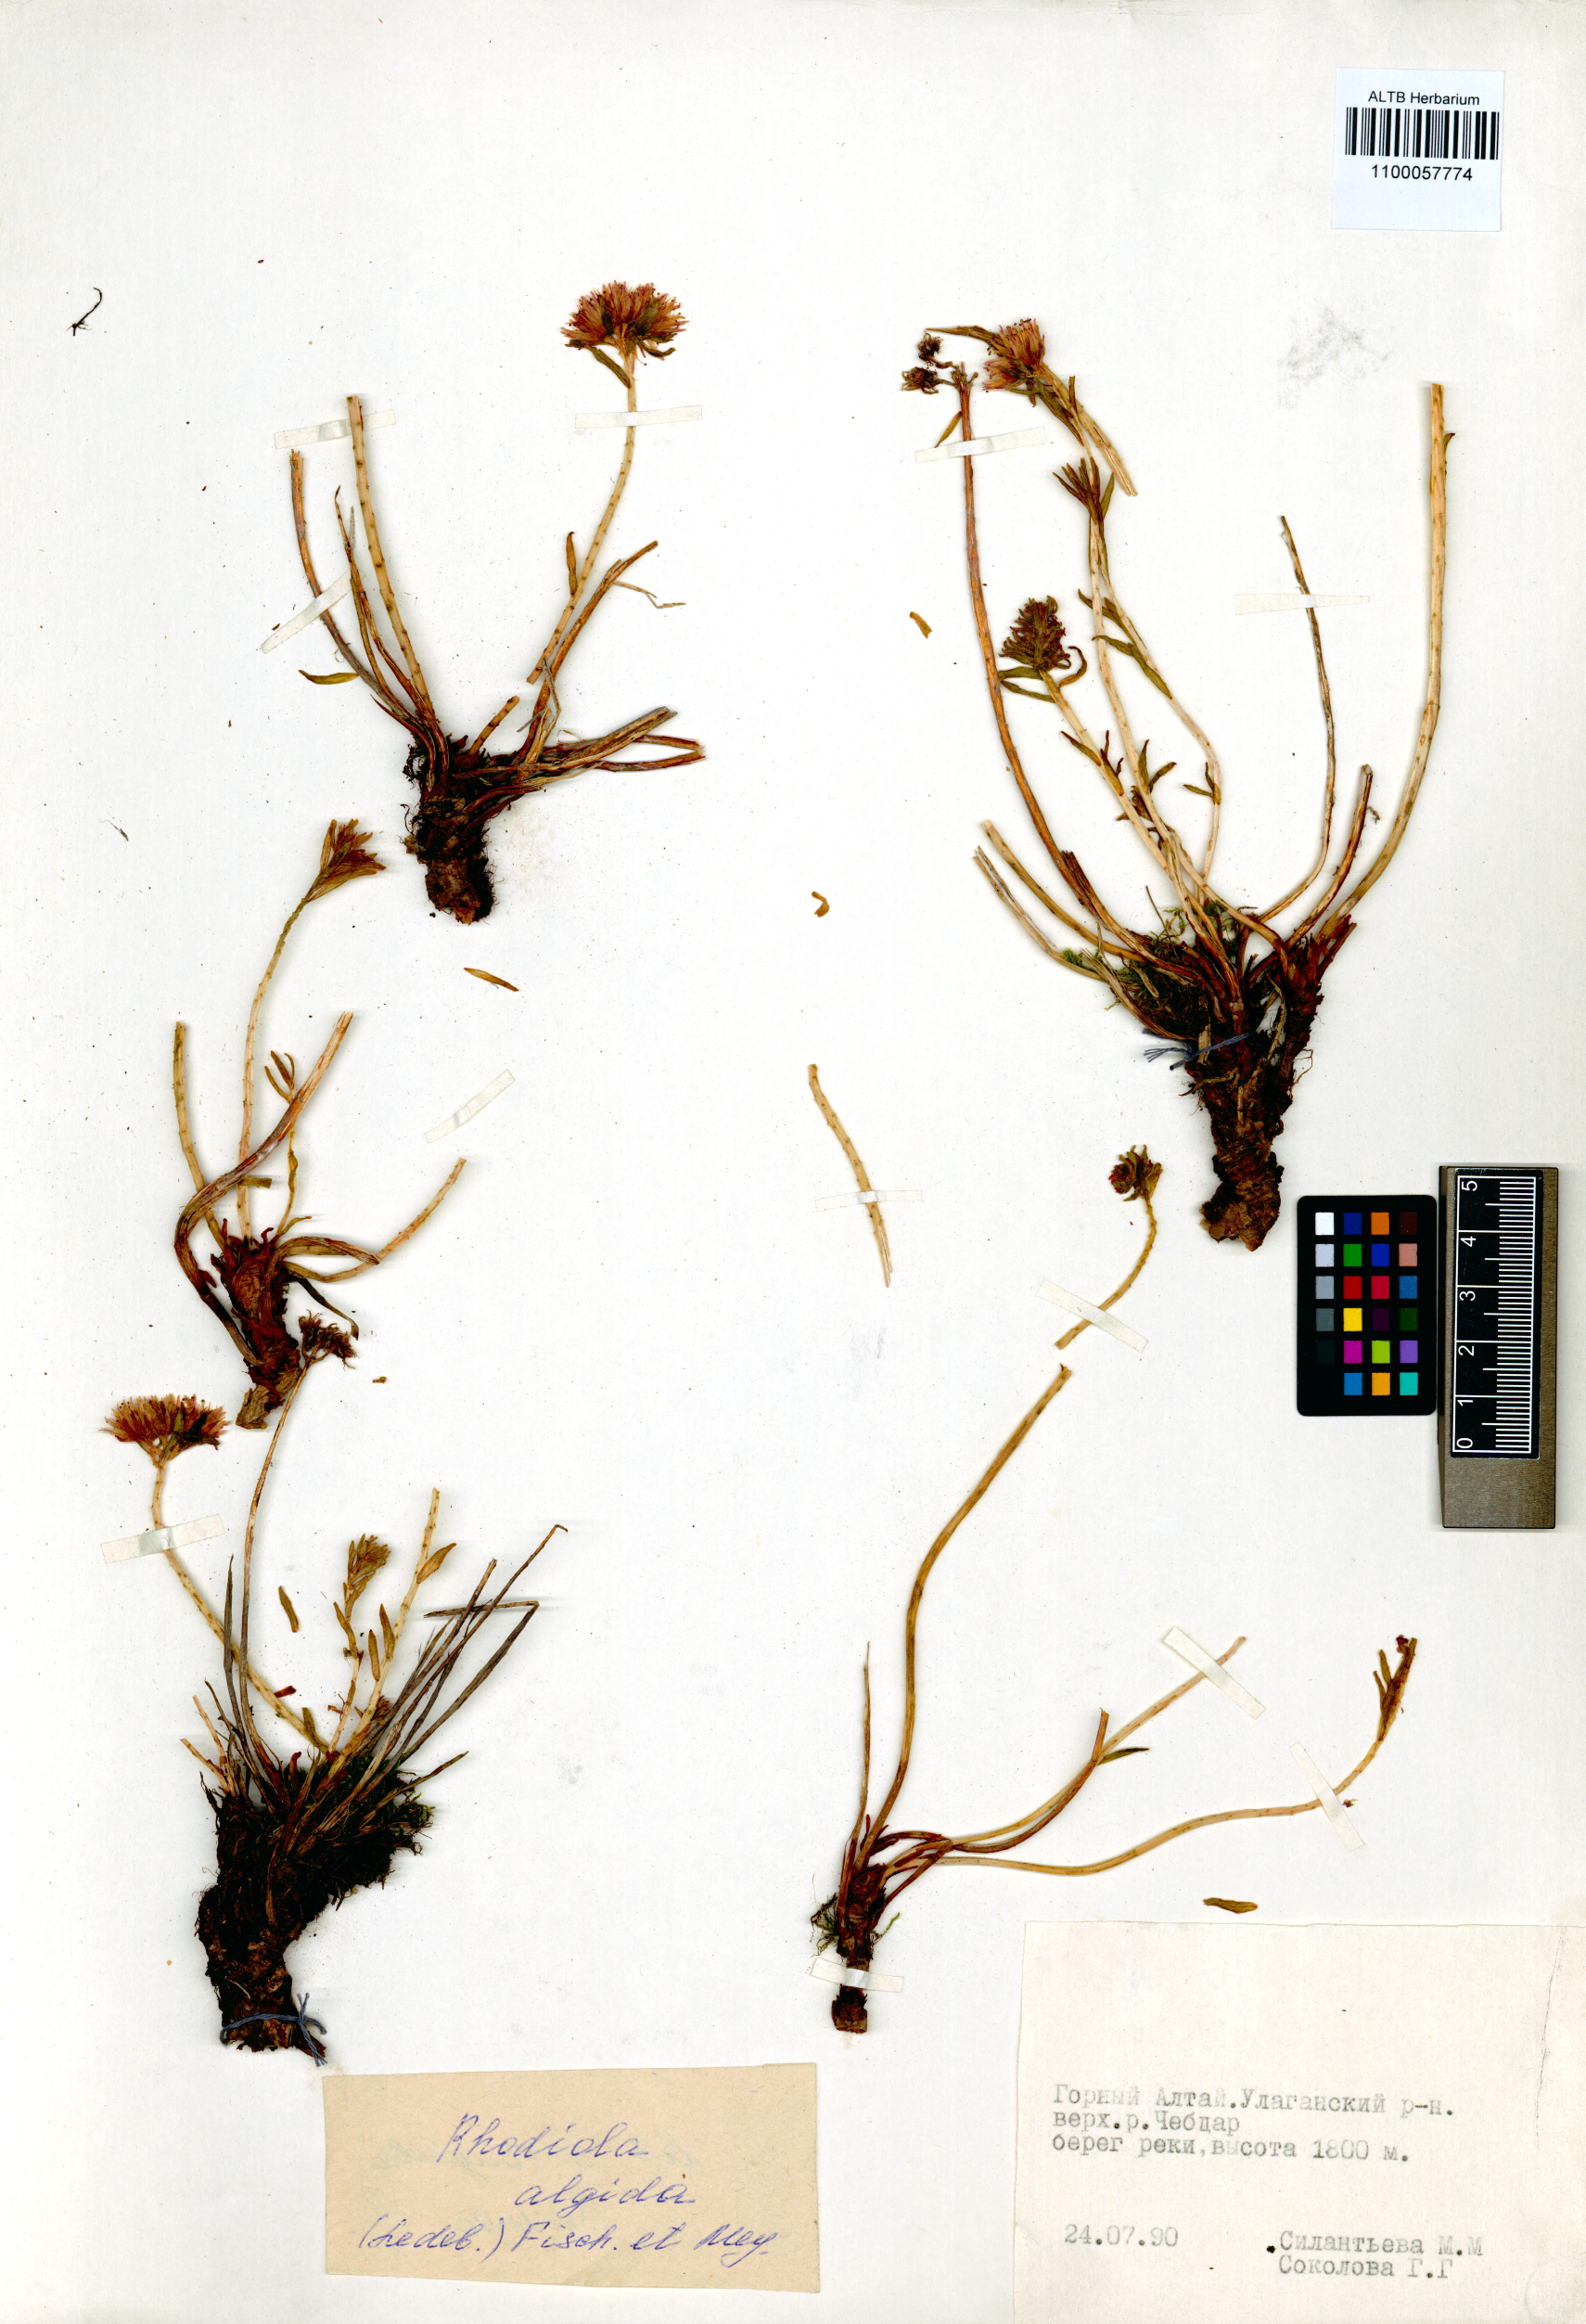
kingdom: Plantae
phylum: Tracheophyta
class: Magnoliopsida
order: Saxifragales
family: Crassulaceae
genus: Rhodiola
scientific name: Rhodiola algida
